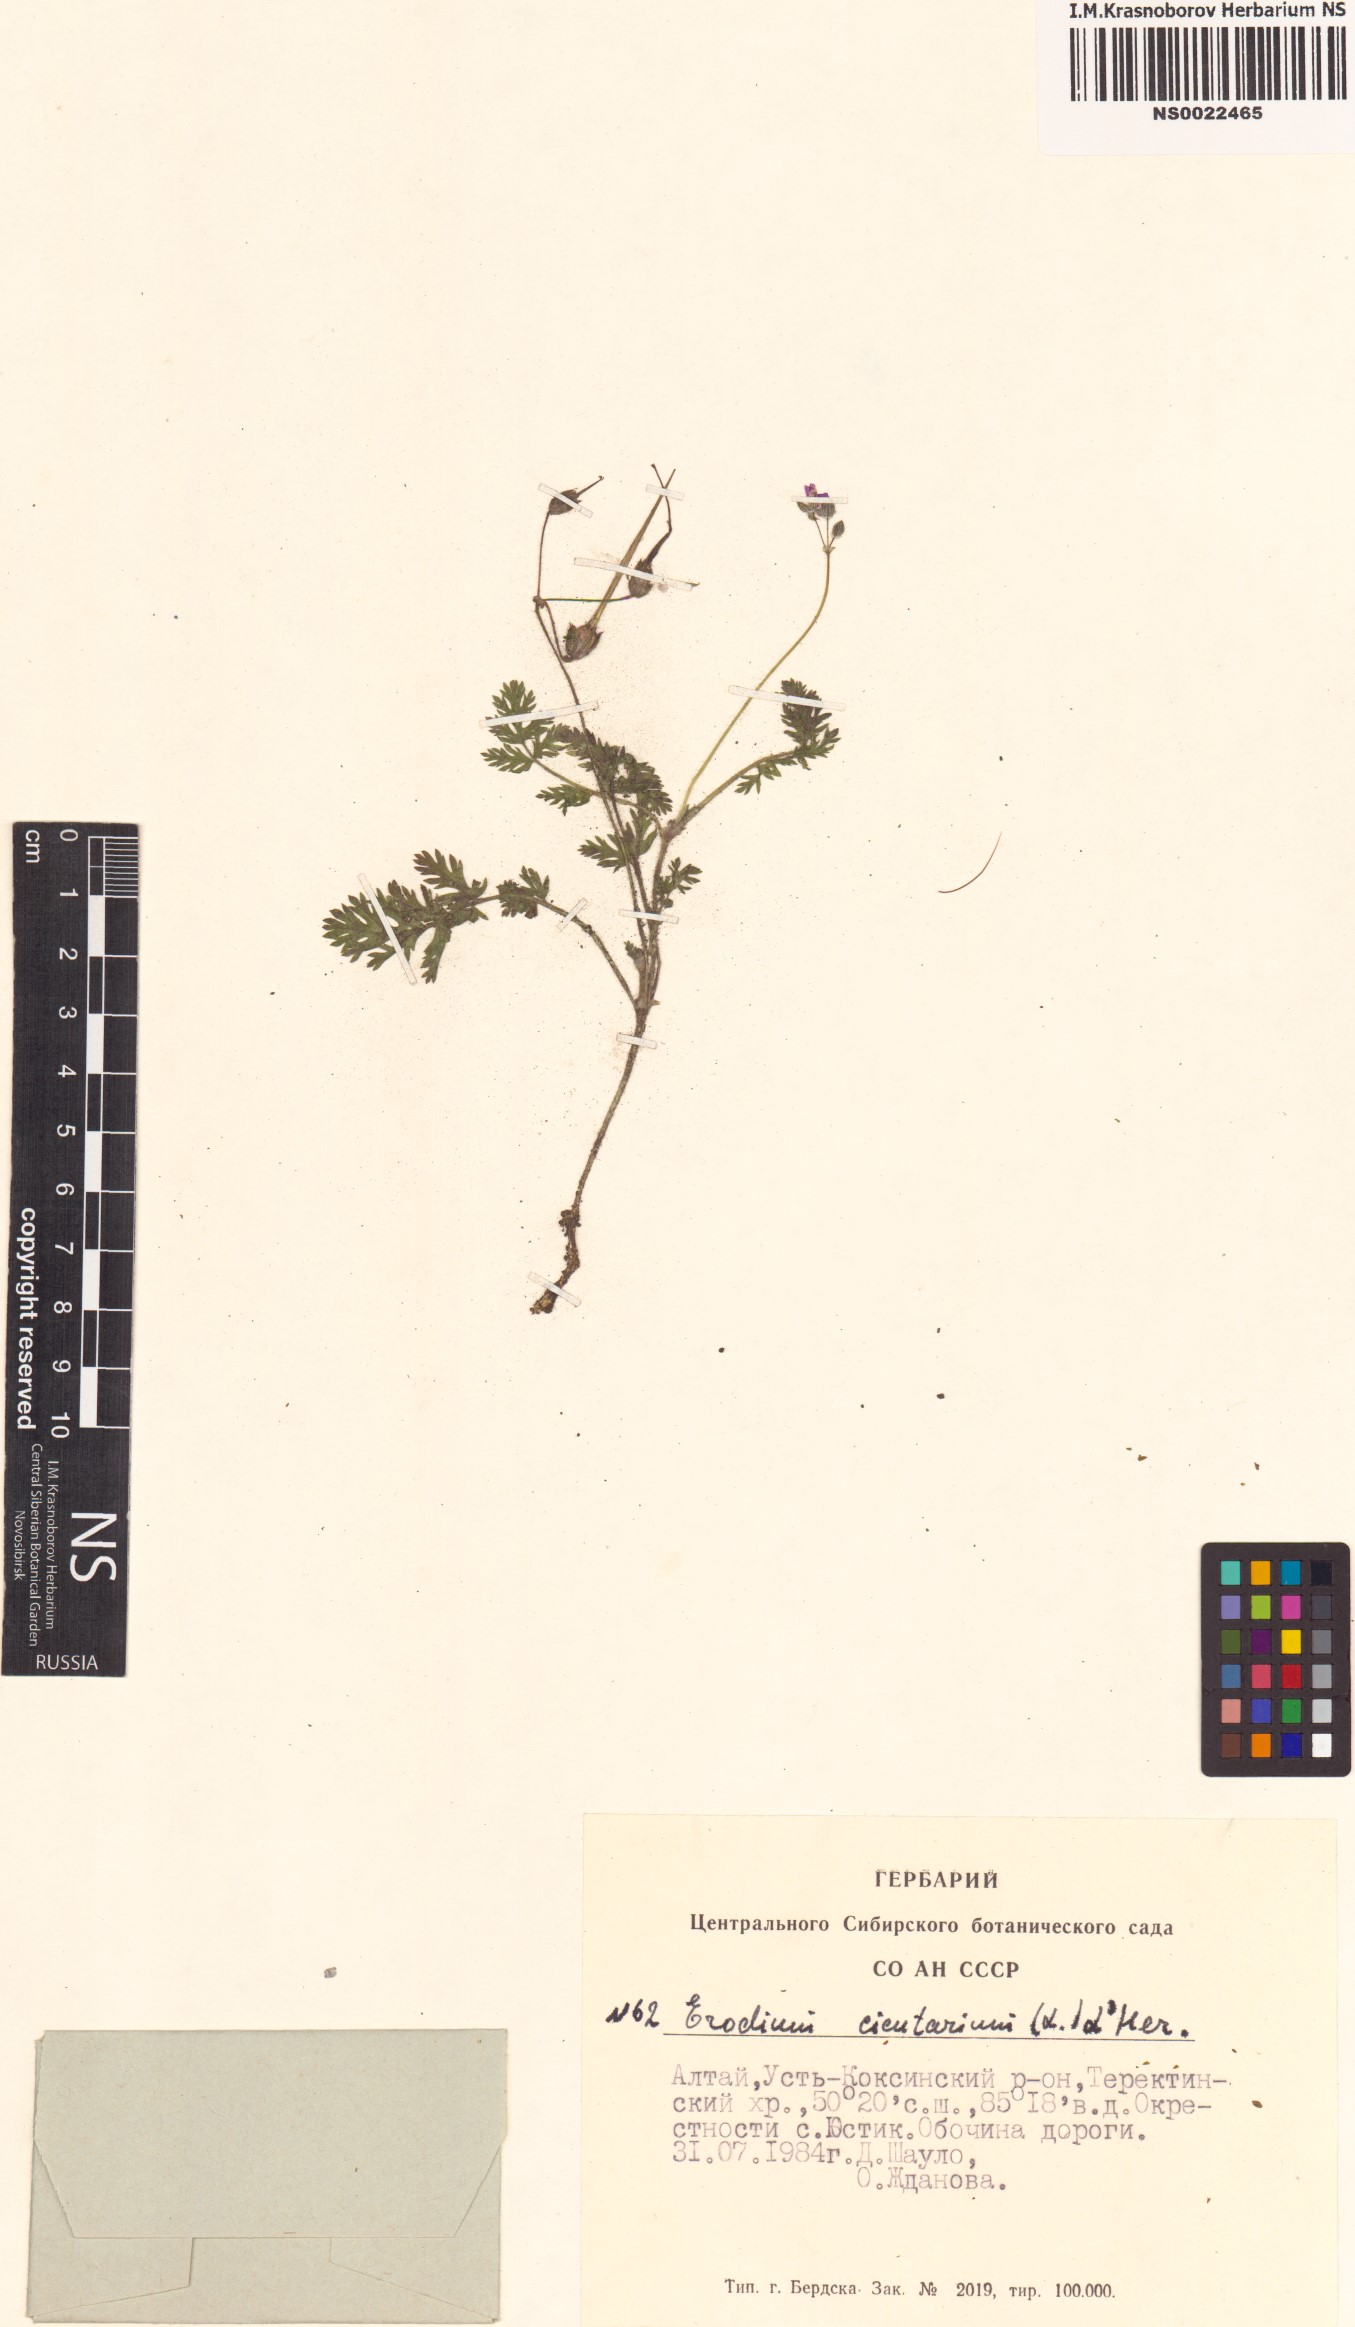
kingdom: Plantae
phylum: Tracheophyta
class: Magnoliopsida
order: Geraniales
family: Geraniaceae
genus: Erodium
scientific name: Erodium cicutarium
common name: Common stork's-bill
